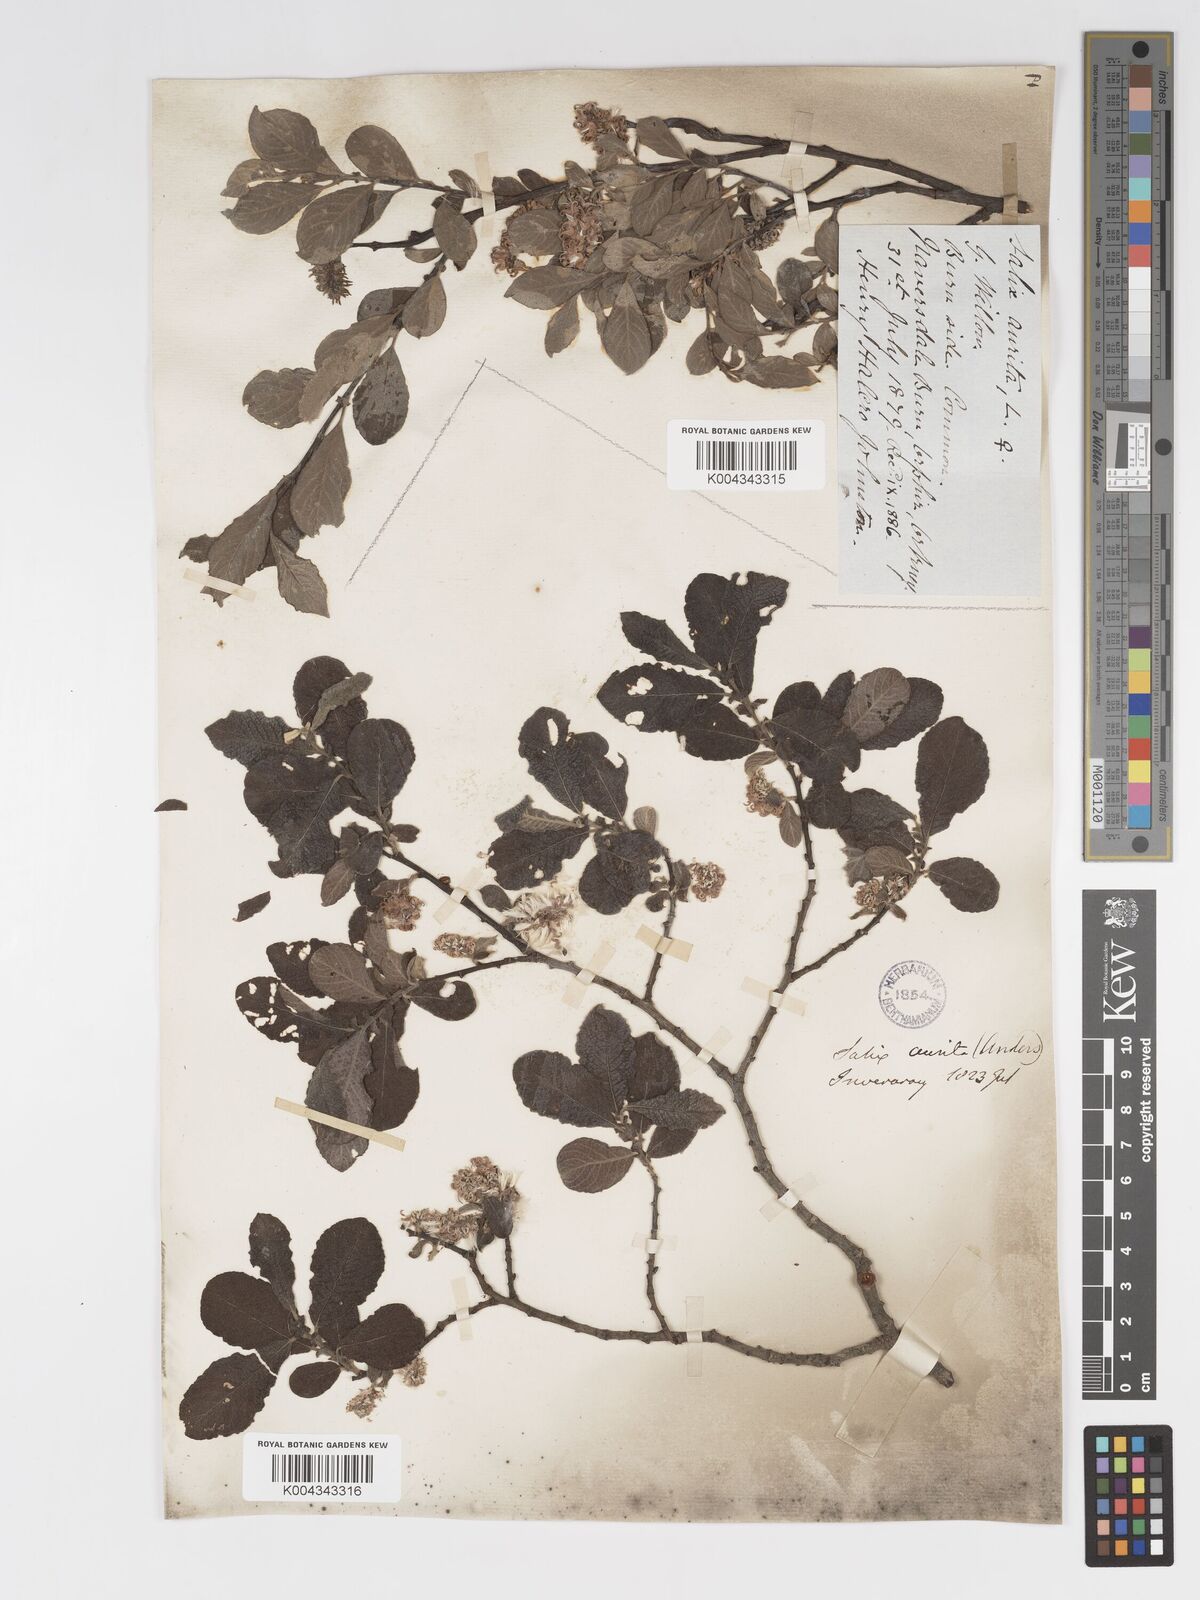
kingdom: Plantae
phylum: Tracheophyta
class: Magnoliopsida
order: Malpighiales
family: Salicaceae
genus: Salix
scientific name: Salix aurita
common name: Eared willow
